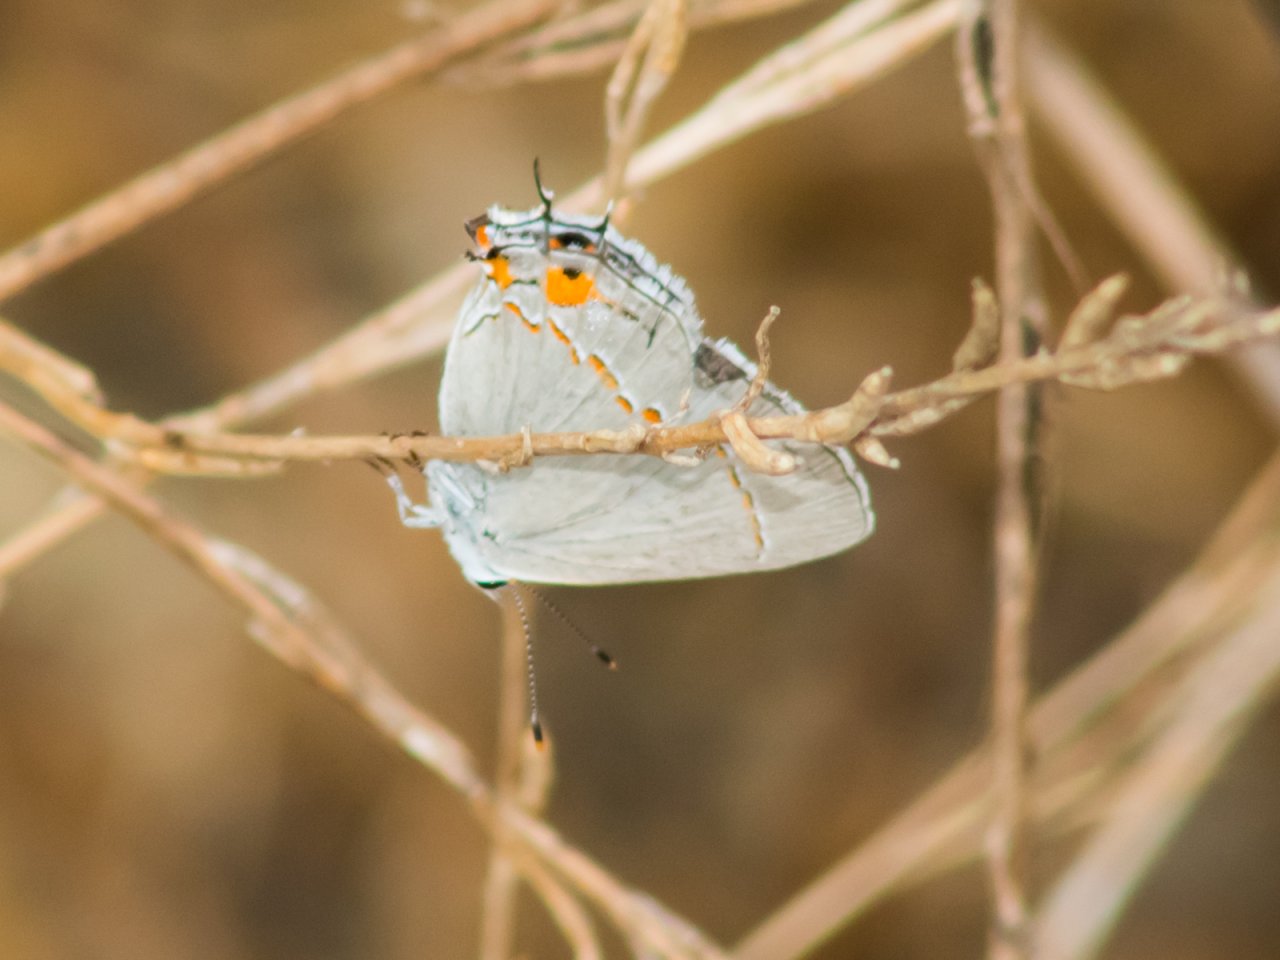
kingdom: Animalia
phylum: Arthropoda
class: Insecta
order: Lepidoptera
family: Lycaenidae
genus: Strymon
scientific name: Strymon melinus
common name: Gray Hairstreak
